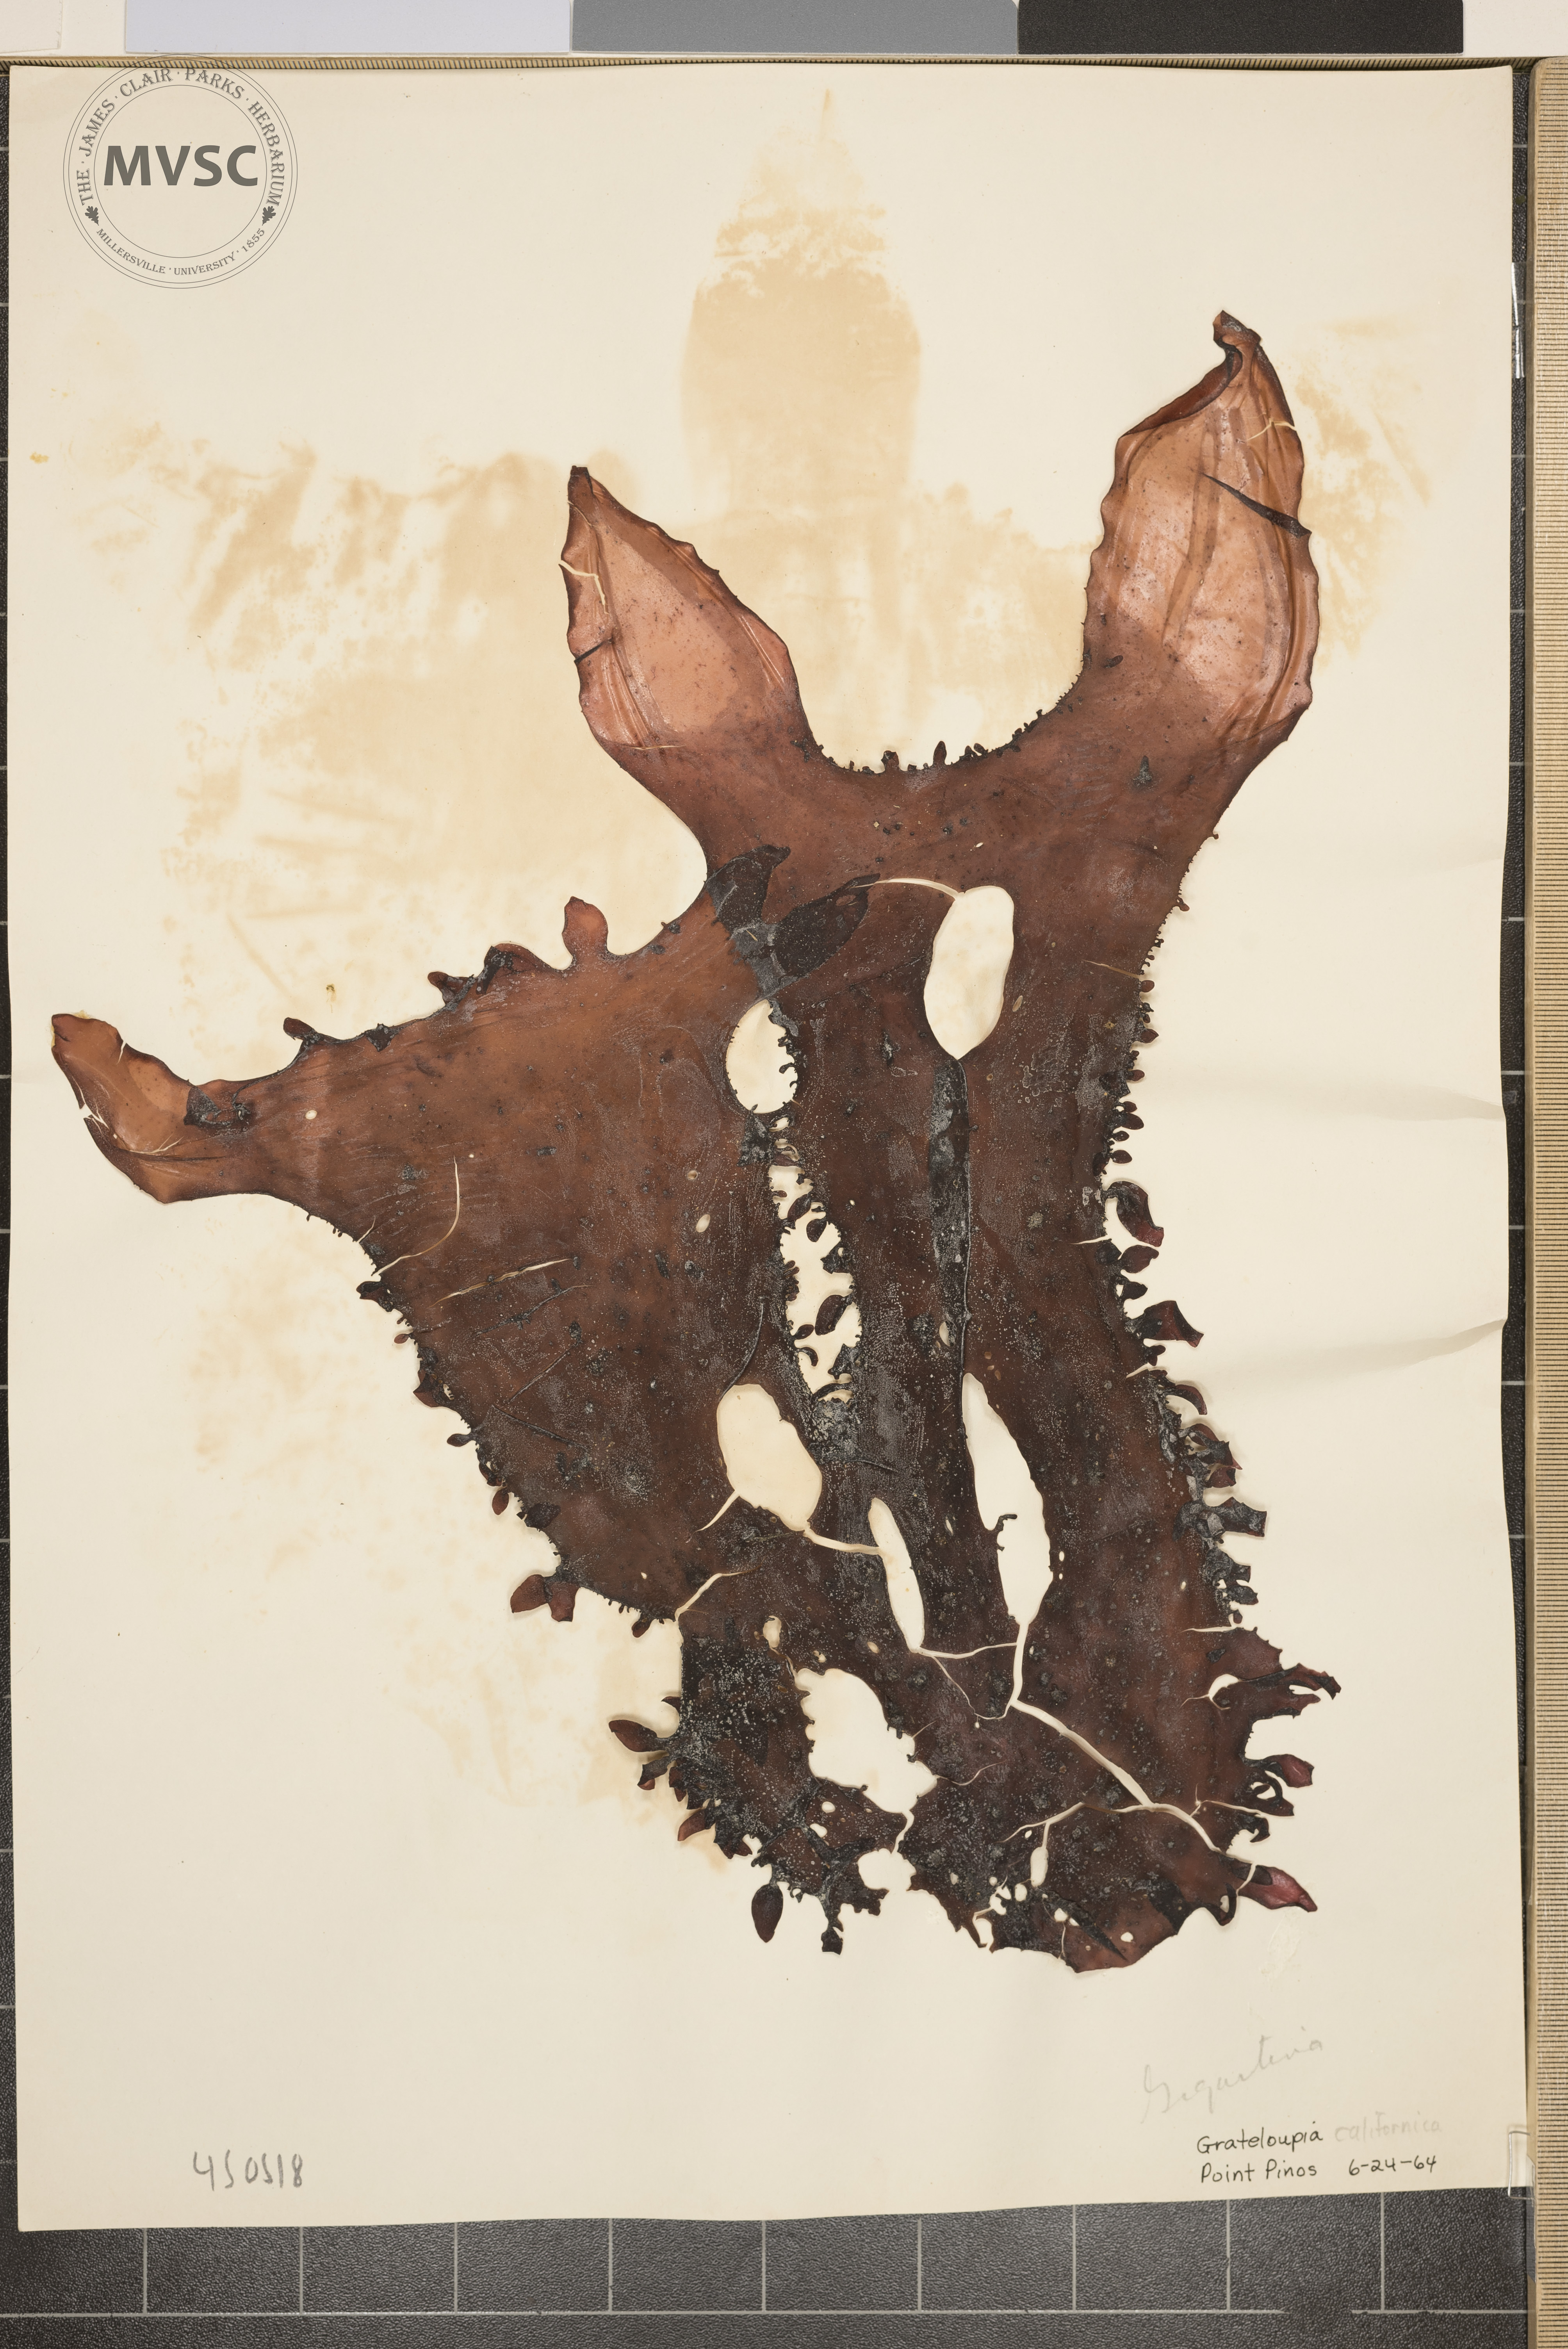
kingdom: Plantae
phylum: Rhodophyta
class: Florideophyceae
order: Gigartinales
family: Gigartinaceae
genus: Gigartina
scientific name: Gigartina
